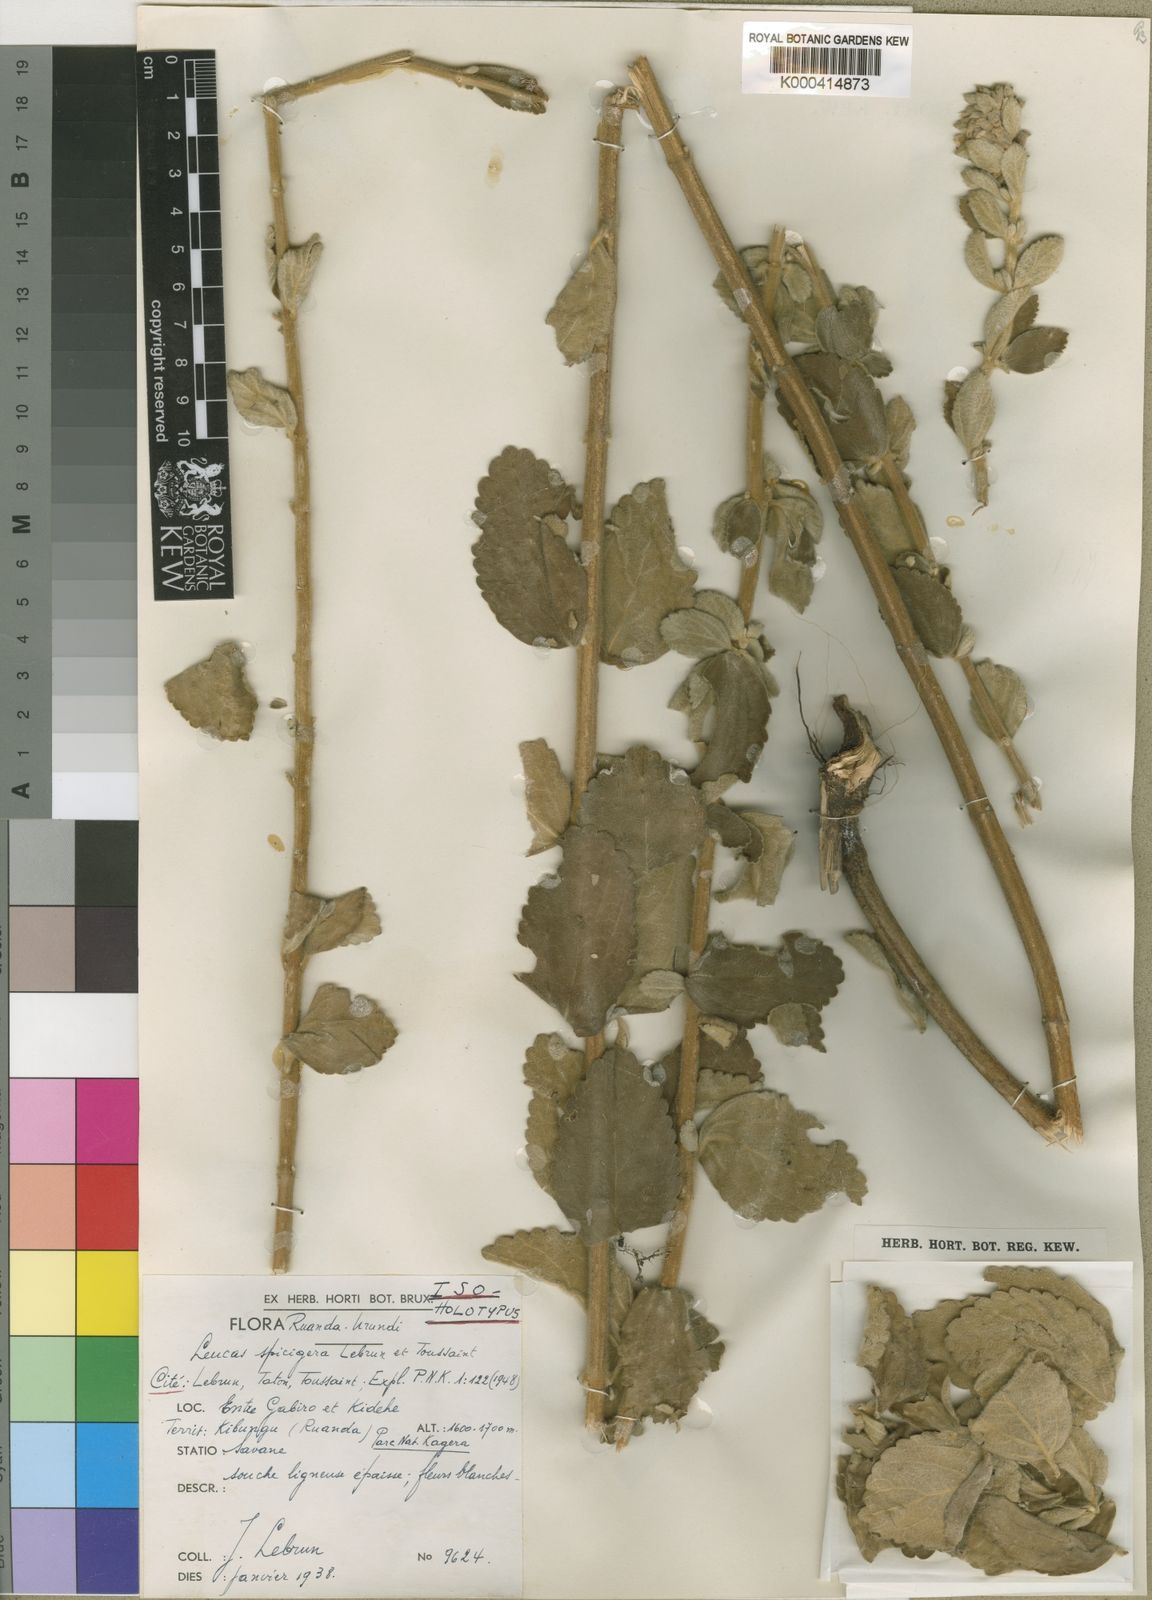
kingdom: Plantae
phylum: Tracheophyta
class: Magnoliopsida
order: Lamiales
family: Lamiaceae
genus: Leucas
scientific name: Leucas calostachys
